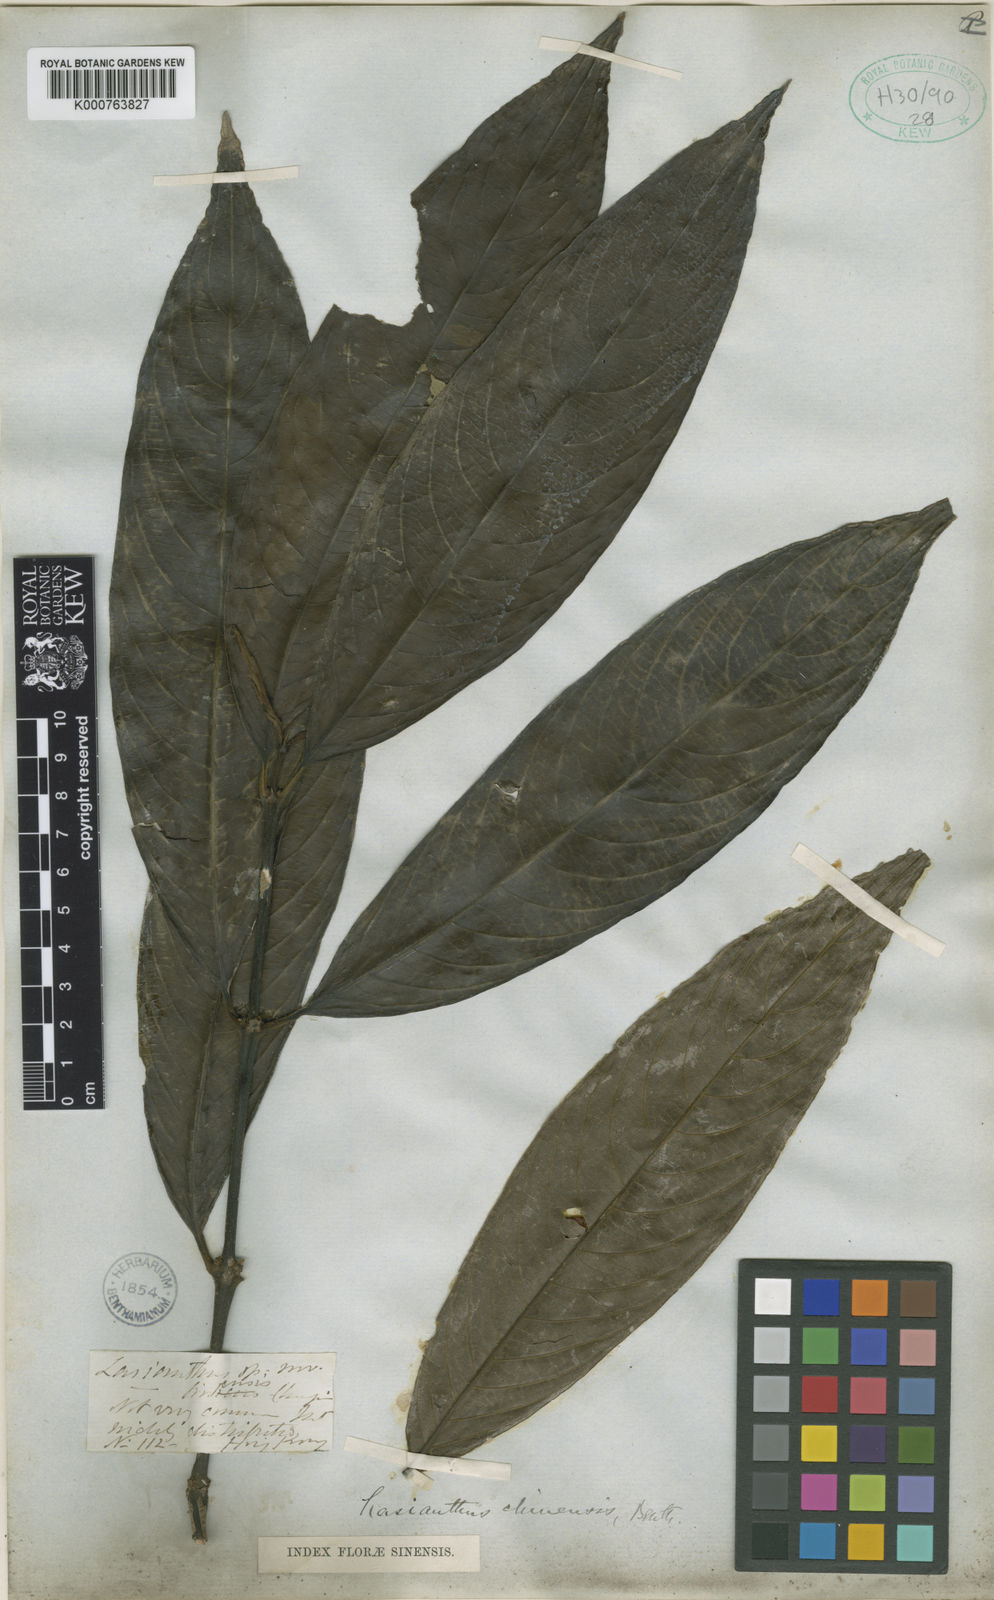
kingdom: Plantae
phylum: Tracheophyta
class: Magnoliopsida
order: Gentianales
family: Rubiaceae
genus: Lasianthus
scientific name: Lasianthus chinensis
